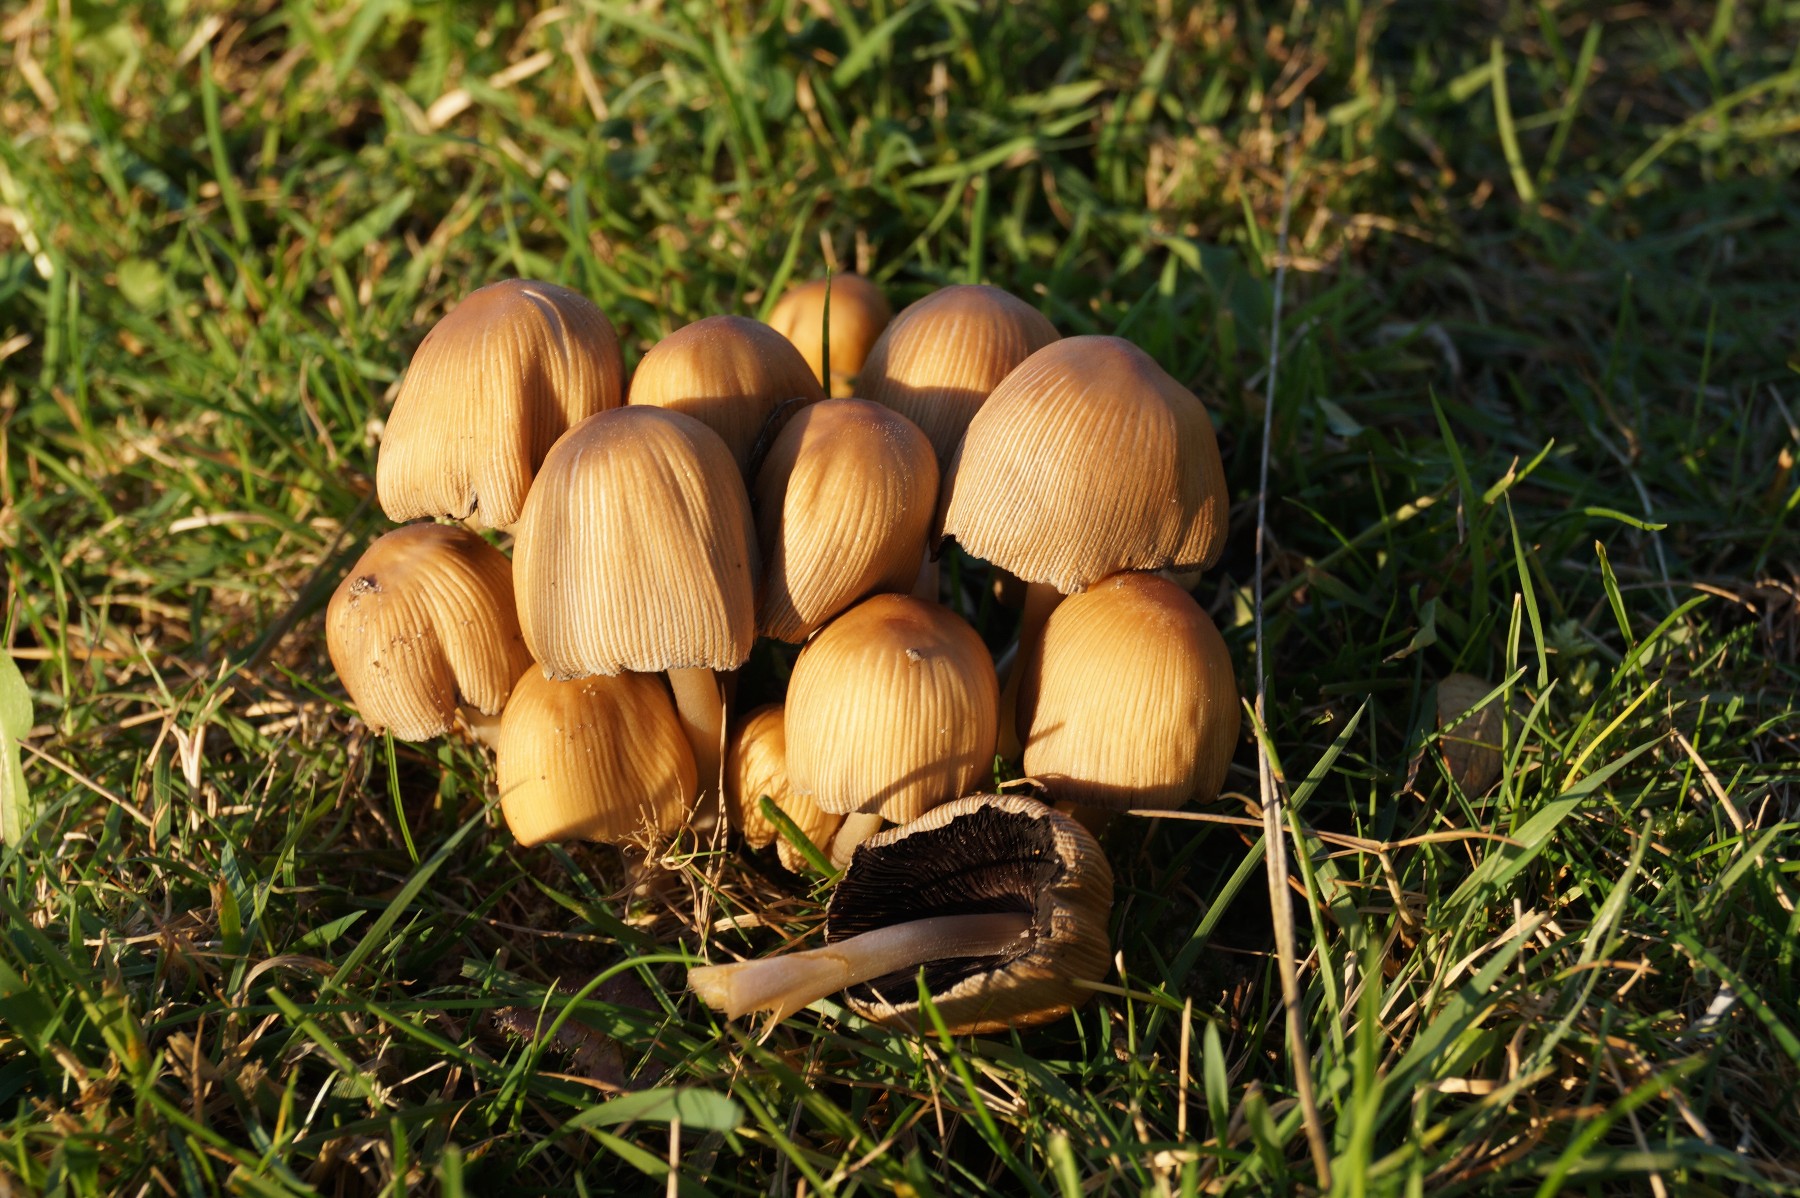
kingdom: Fungi
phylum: Basidiomycota
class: Agaricomycetes
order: Agaricales
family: Psathyrellaceae
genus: Coprinellus
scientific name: Coprinellus micaceus
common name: glimmer-blækhat
